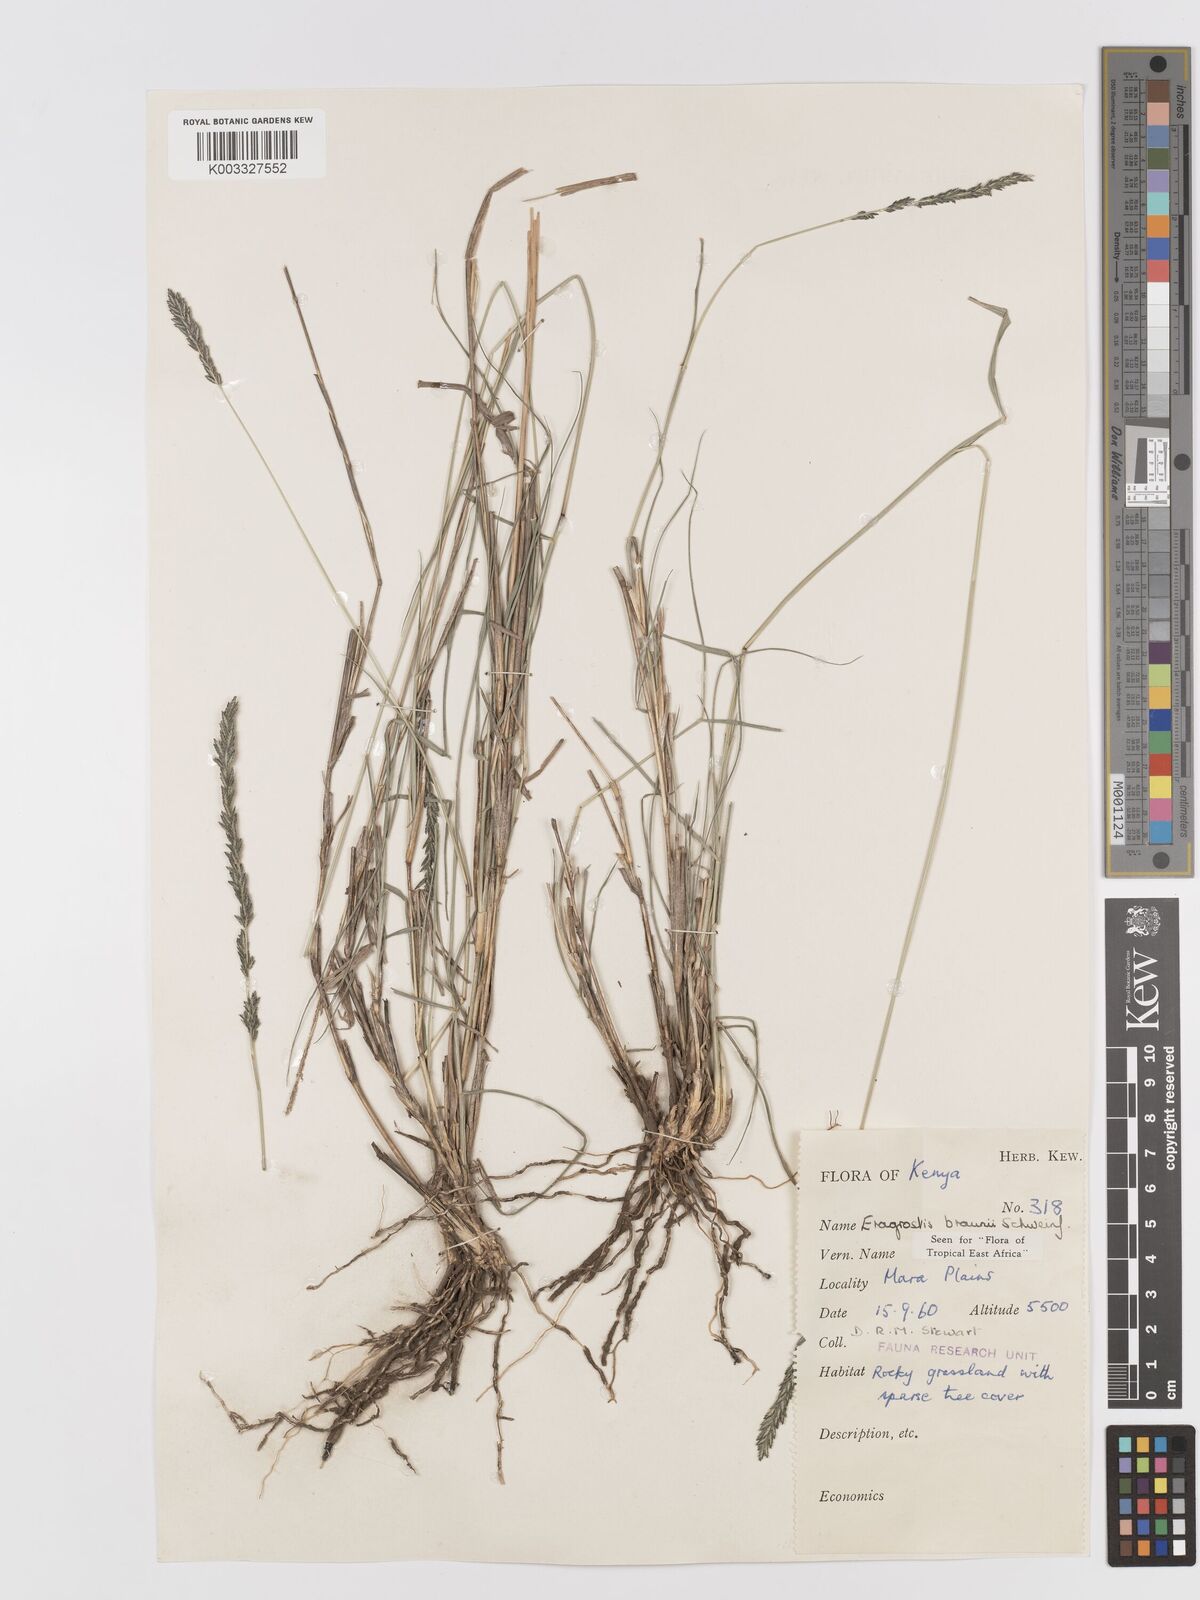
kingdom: Plantae
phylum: Tracheophyta
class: Liliopsida
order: Poales
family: Poaceae
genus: Eragrostis
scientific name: Eragrostis braunii
